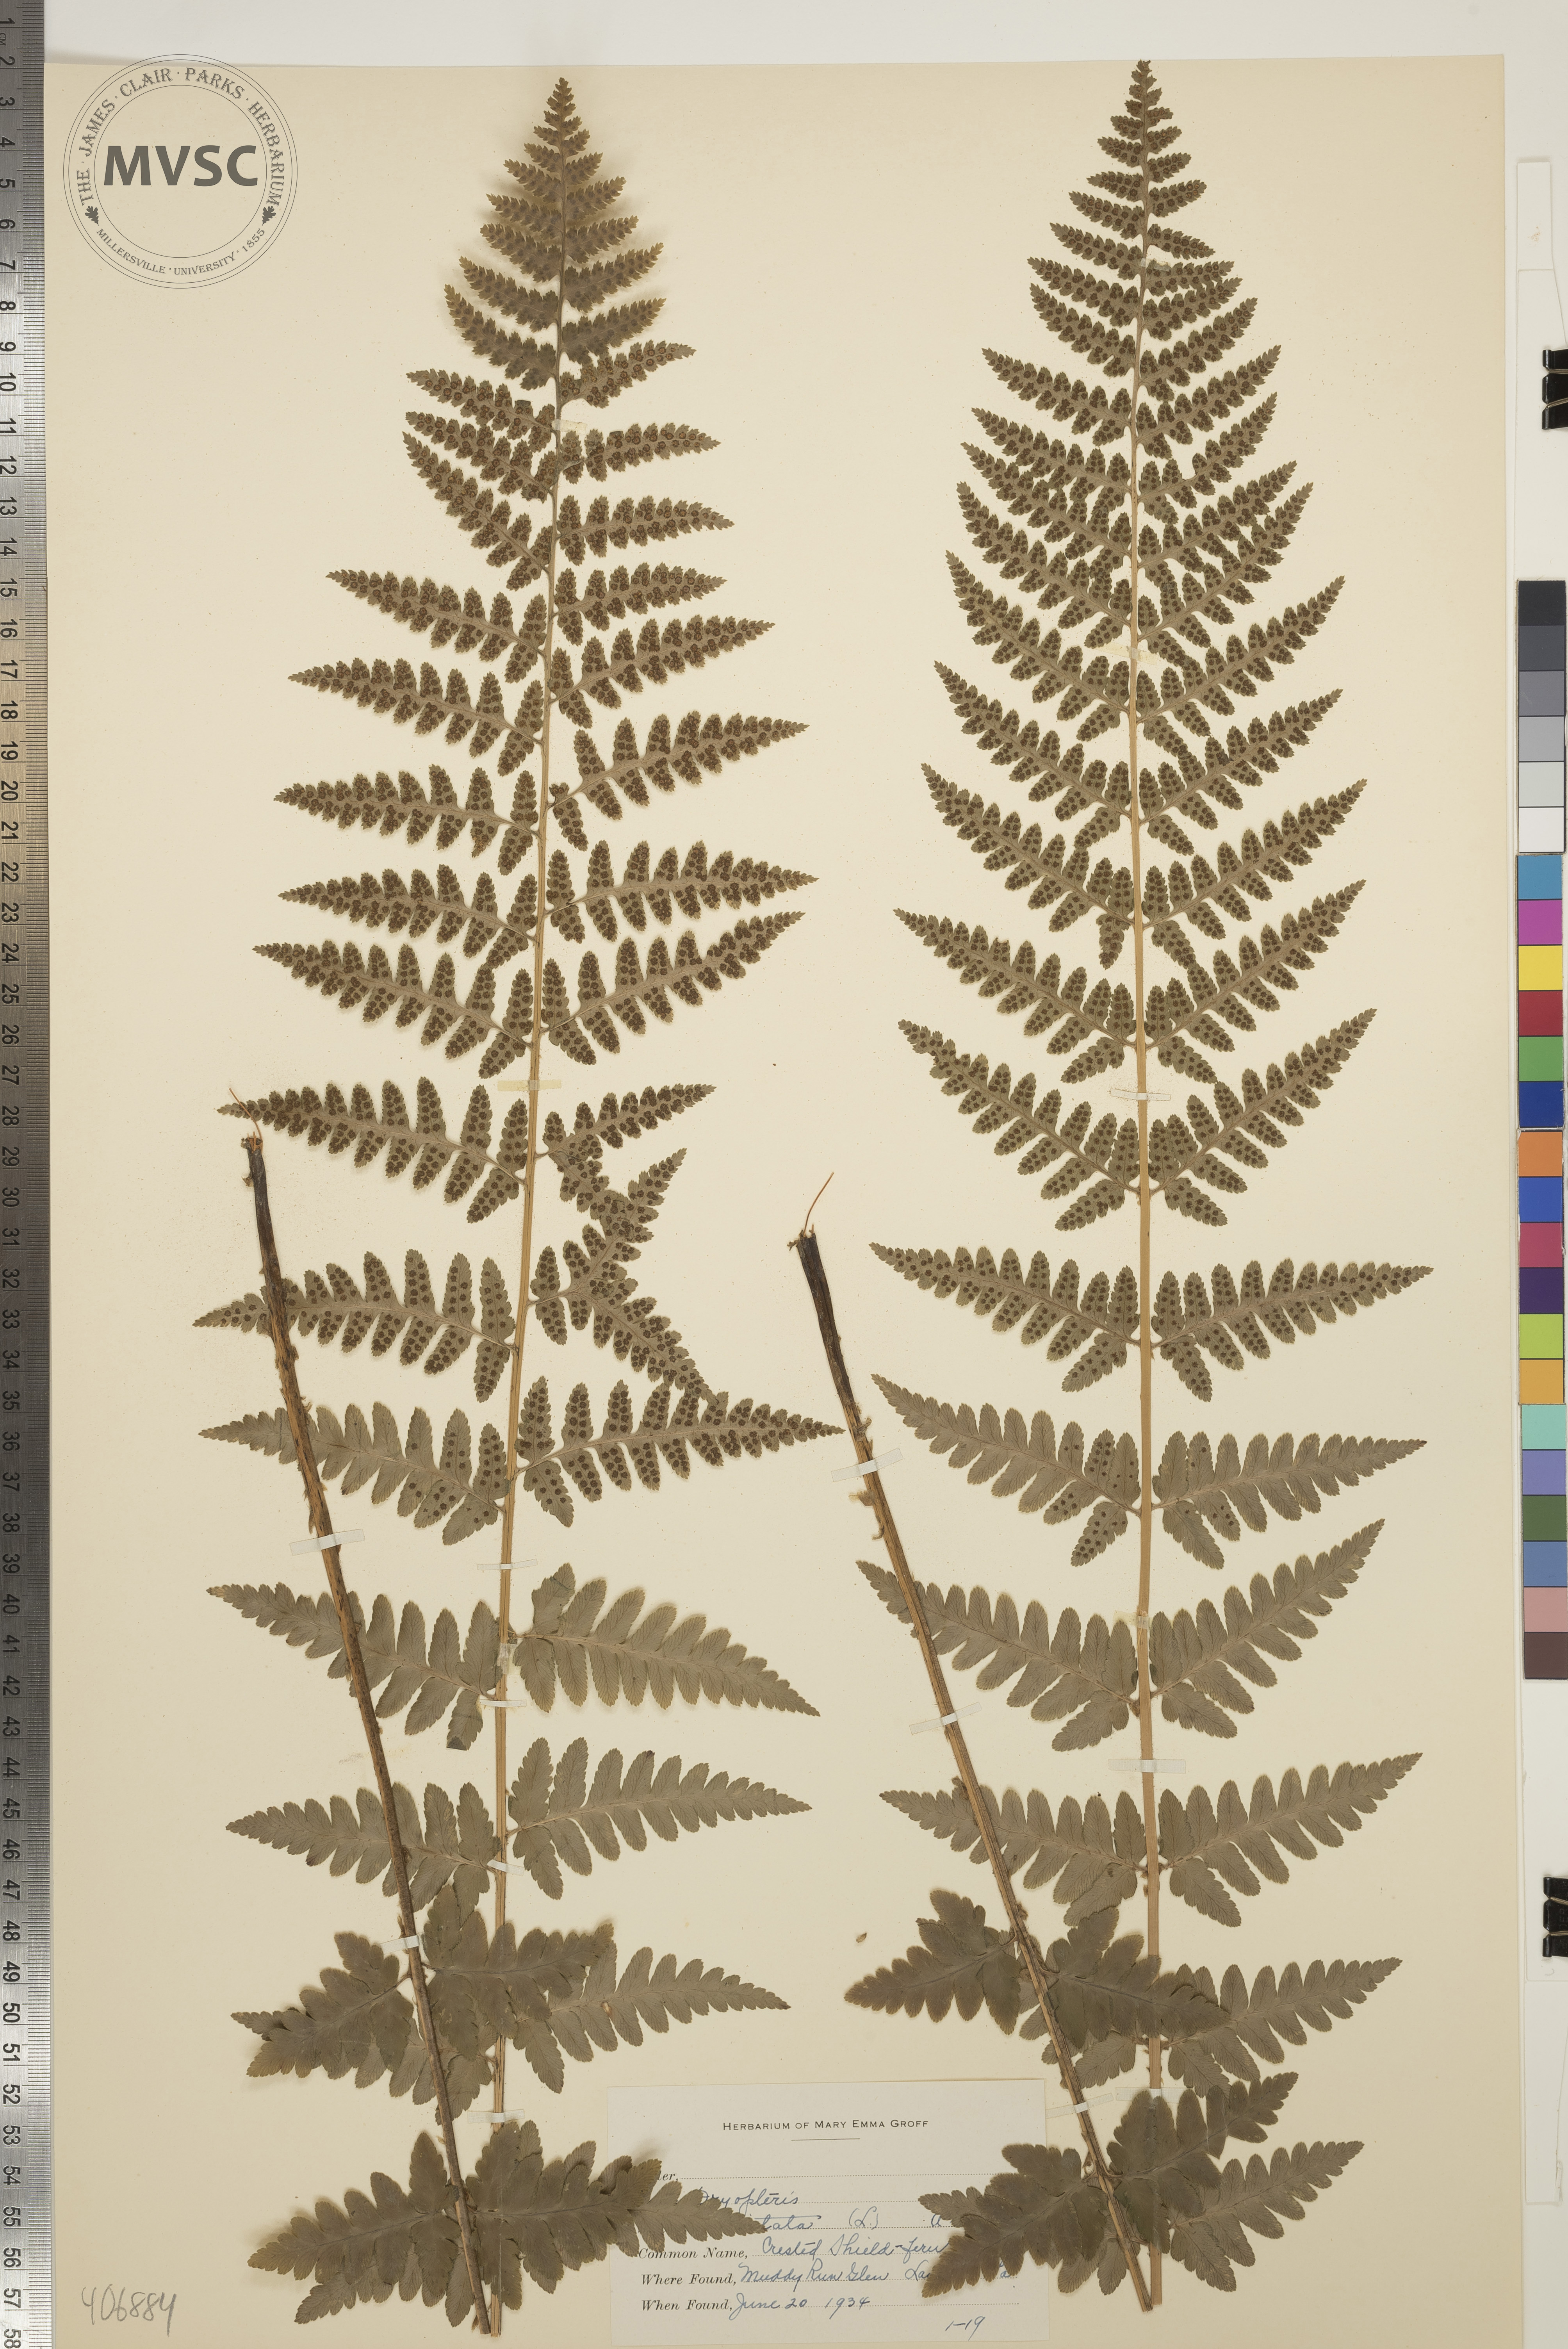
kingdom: Plantae
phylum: Tracheophyta
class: Polypodiopsida
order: Polypodiales
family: Dryopteridaceae
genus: Dryopteris
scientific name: Dryopteris cristata
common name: Crested Shield Fern
